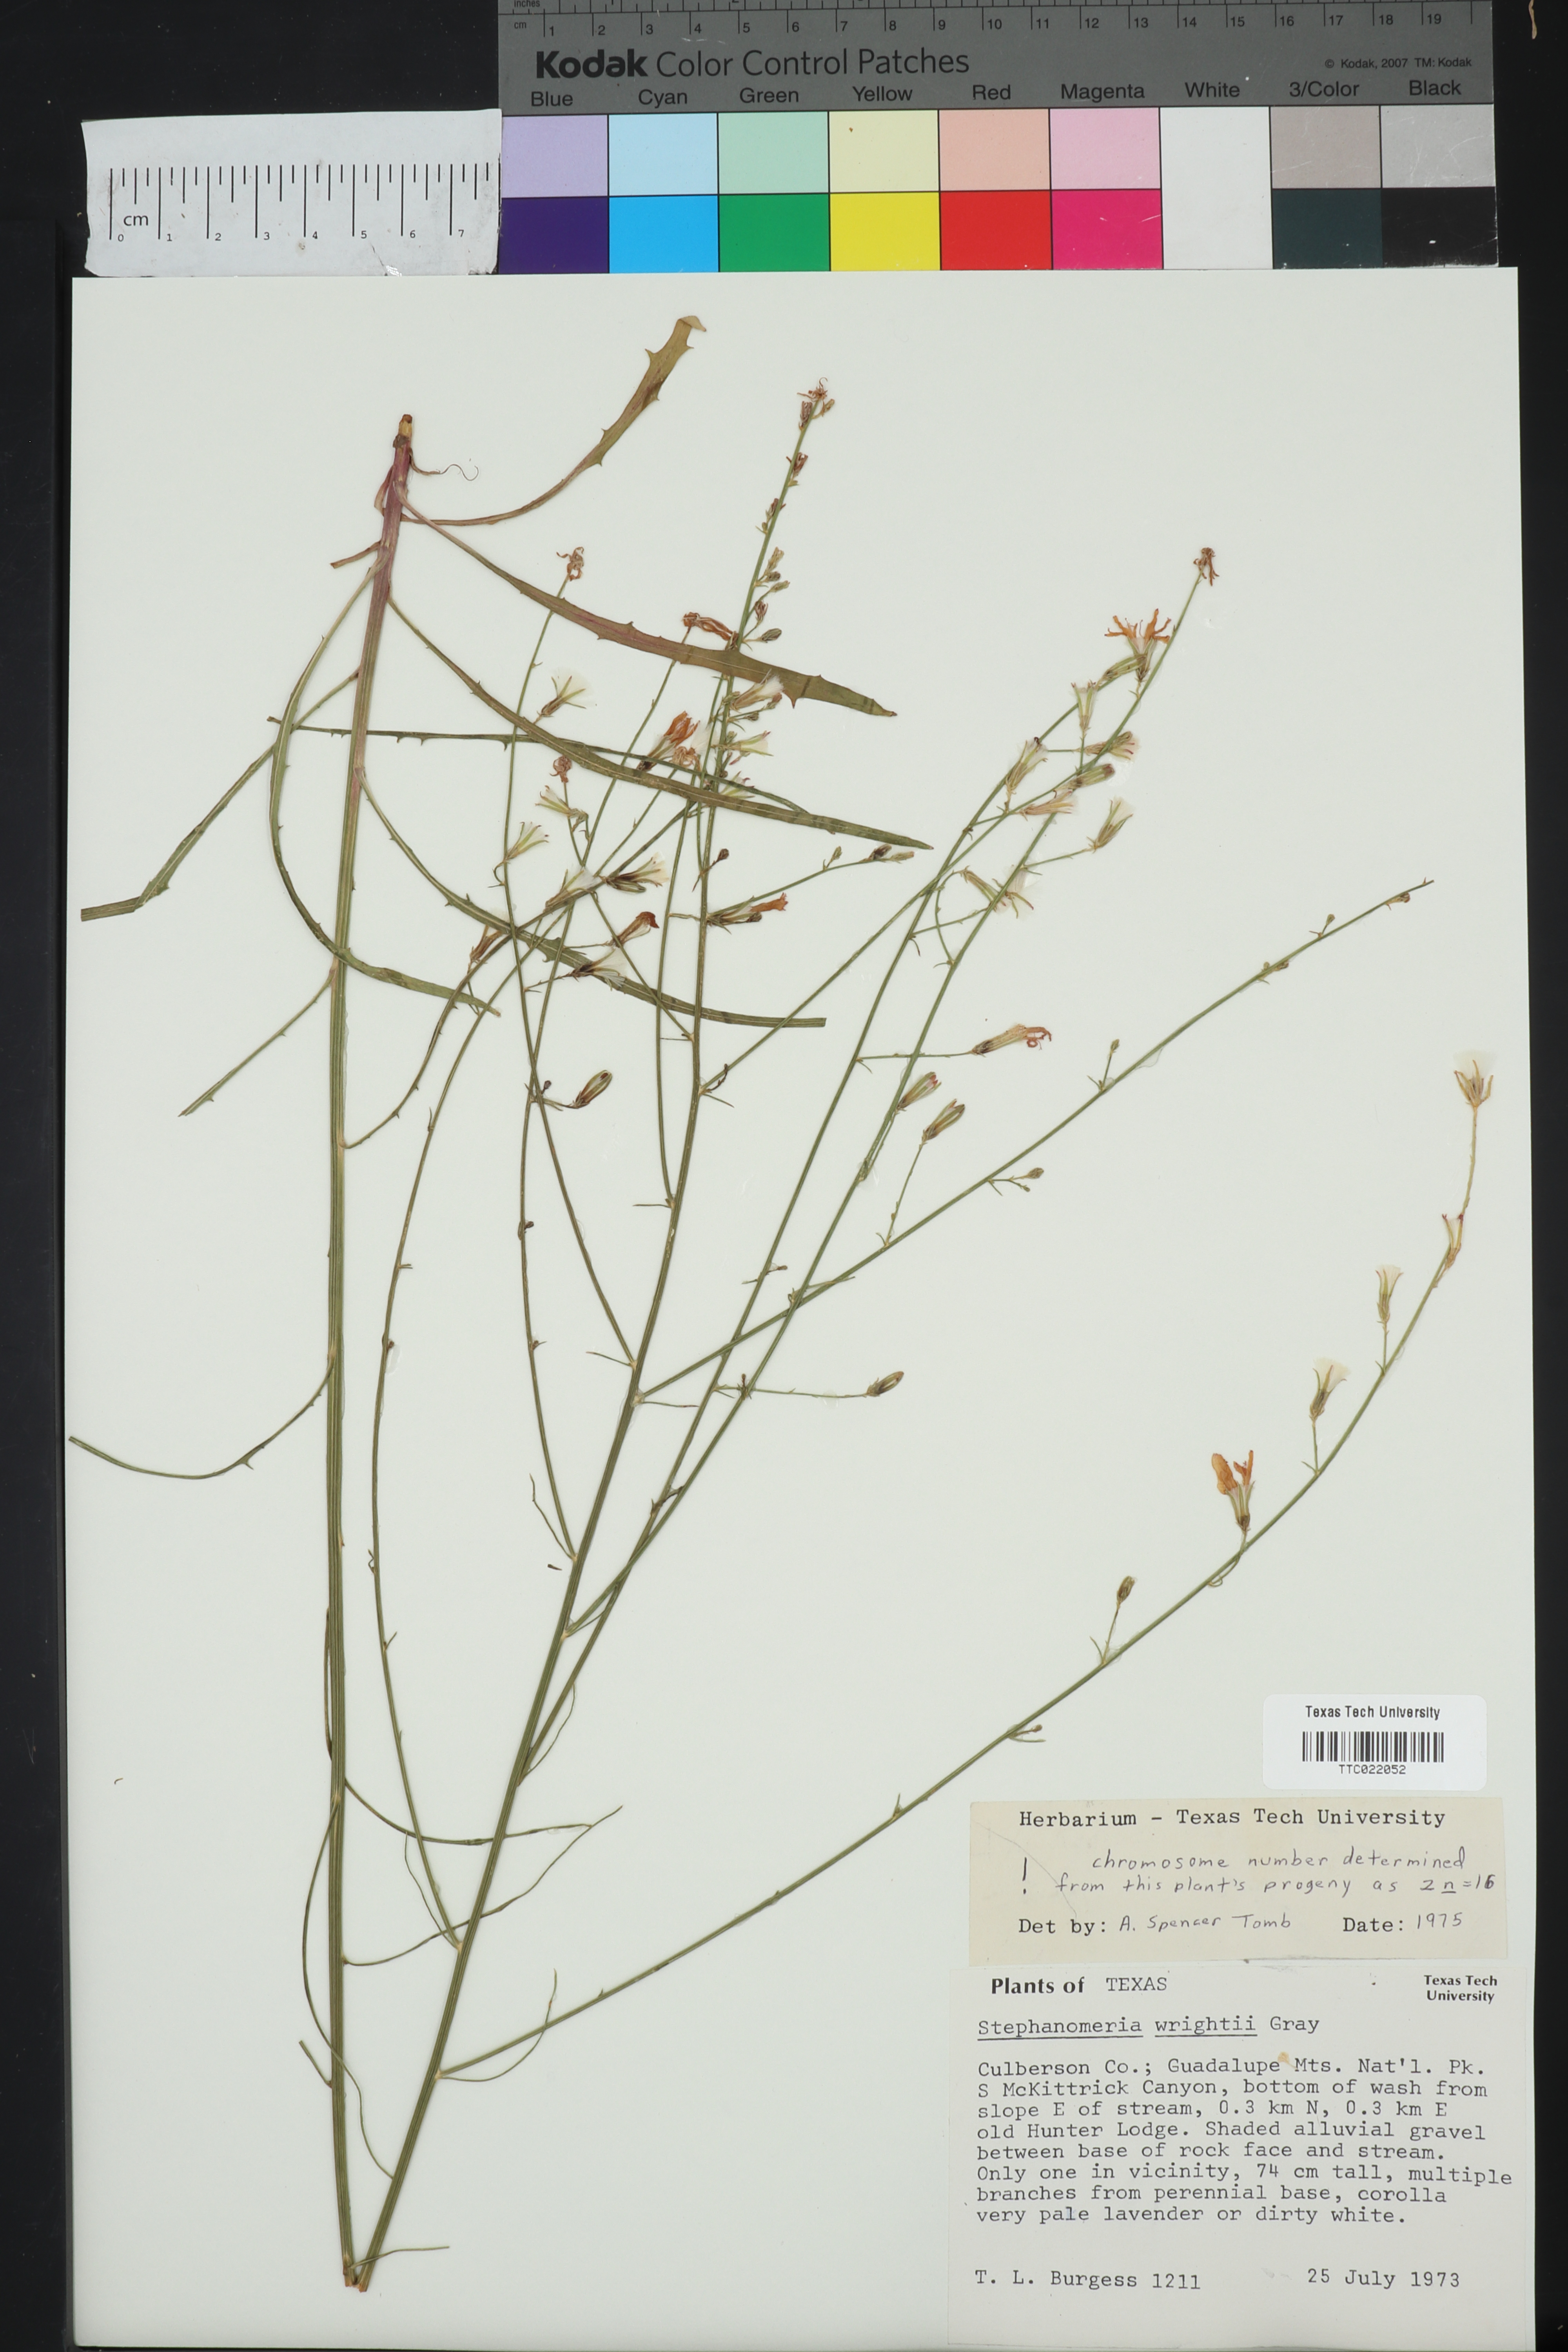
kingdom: Plantae
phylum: Tracheophyta
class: Magnoliopsida
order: Asterales
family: Asteraceae
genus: Stephanomeria
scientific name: Stephanomeria tenuifolia
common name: Slender wirelettuce
